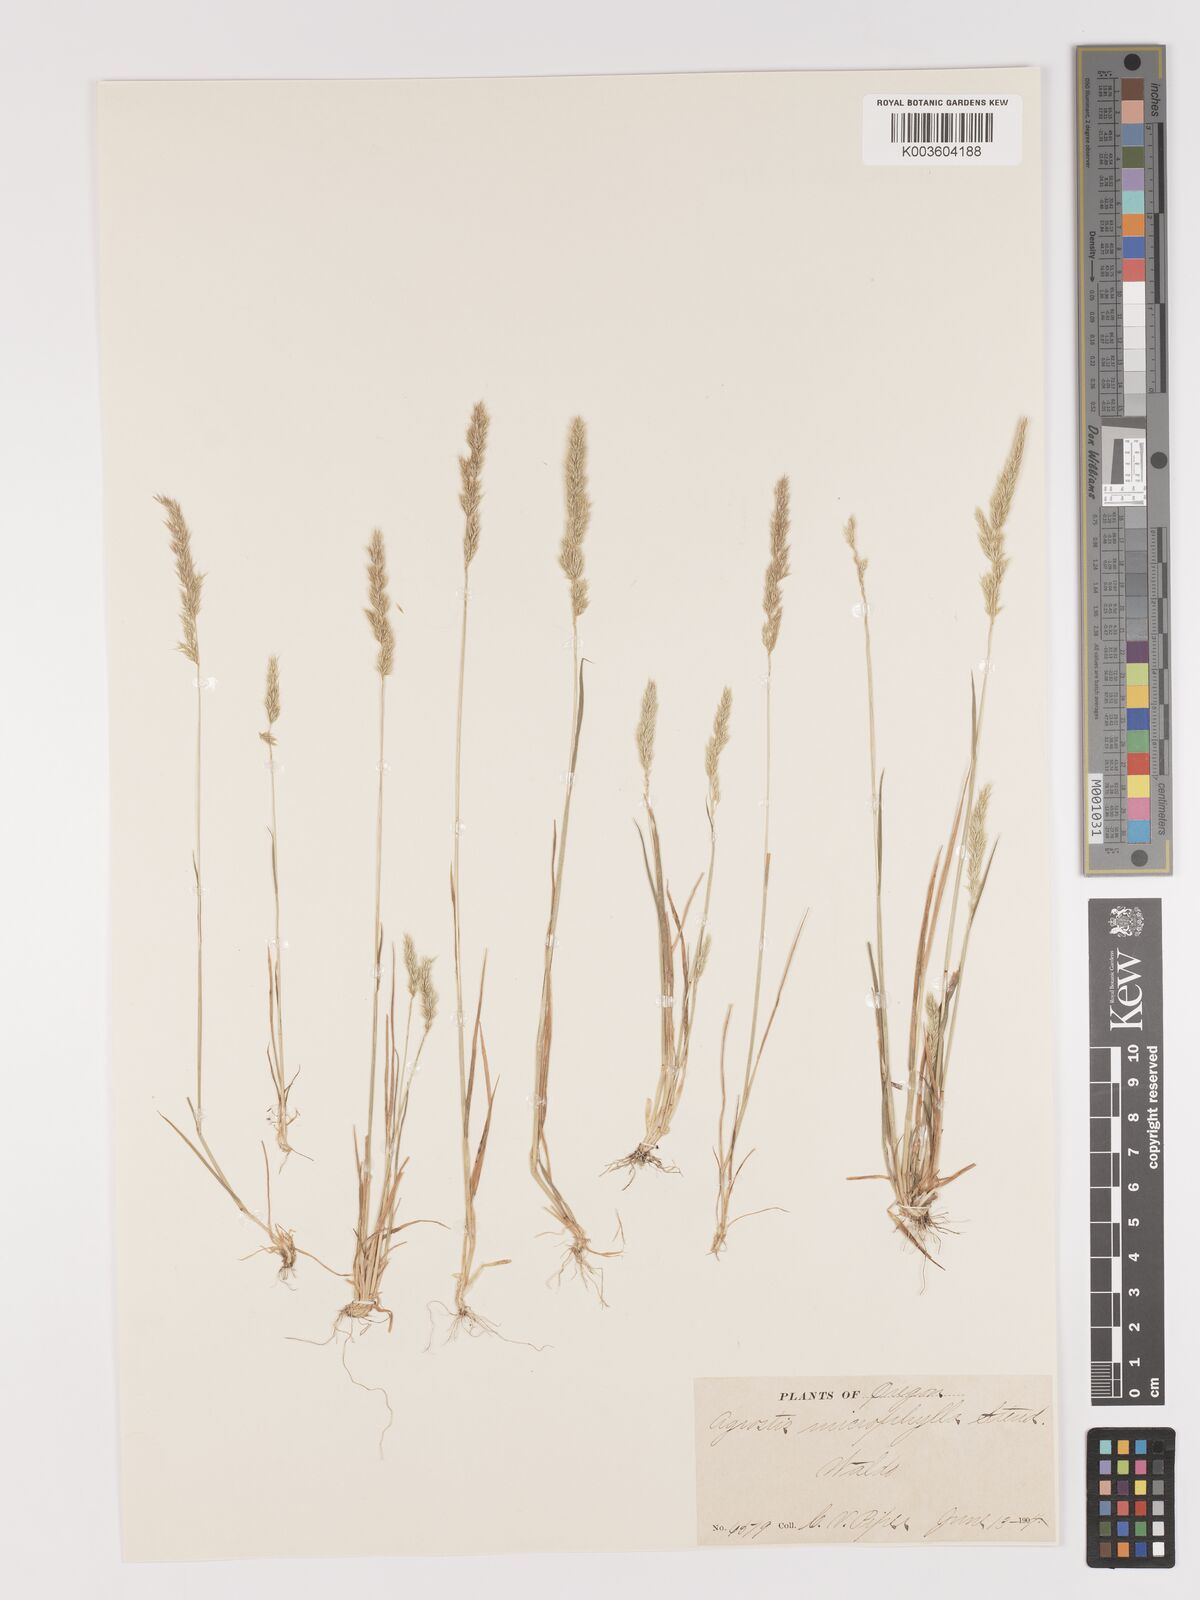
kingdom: Plantae
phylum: Tracheophyta
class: Liliopsida
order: Poales
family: Poaceae
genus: Agrostis
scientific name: Agrostis microphylla
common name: Small-leaf bent
